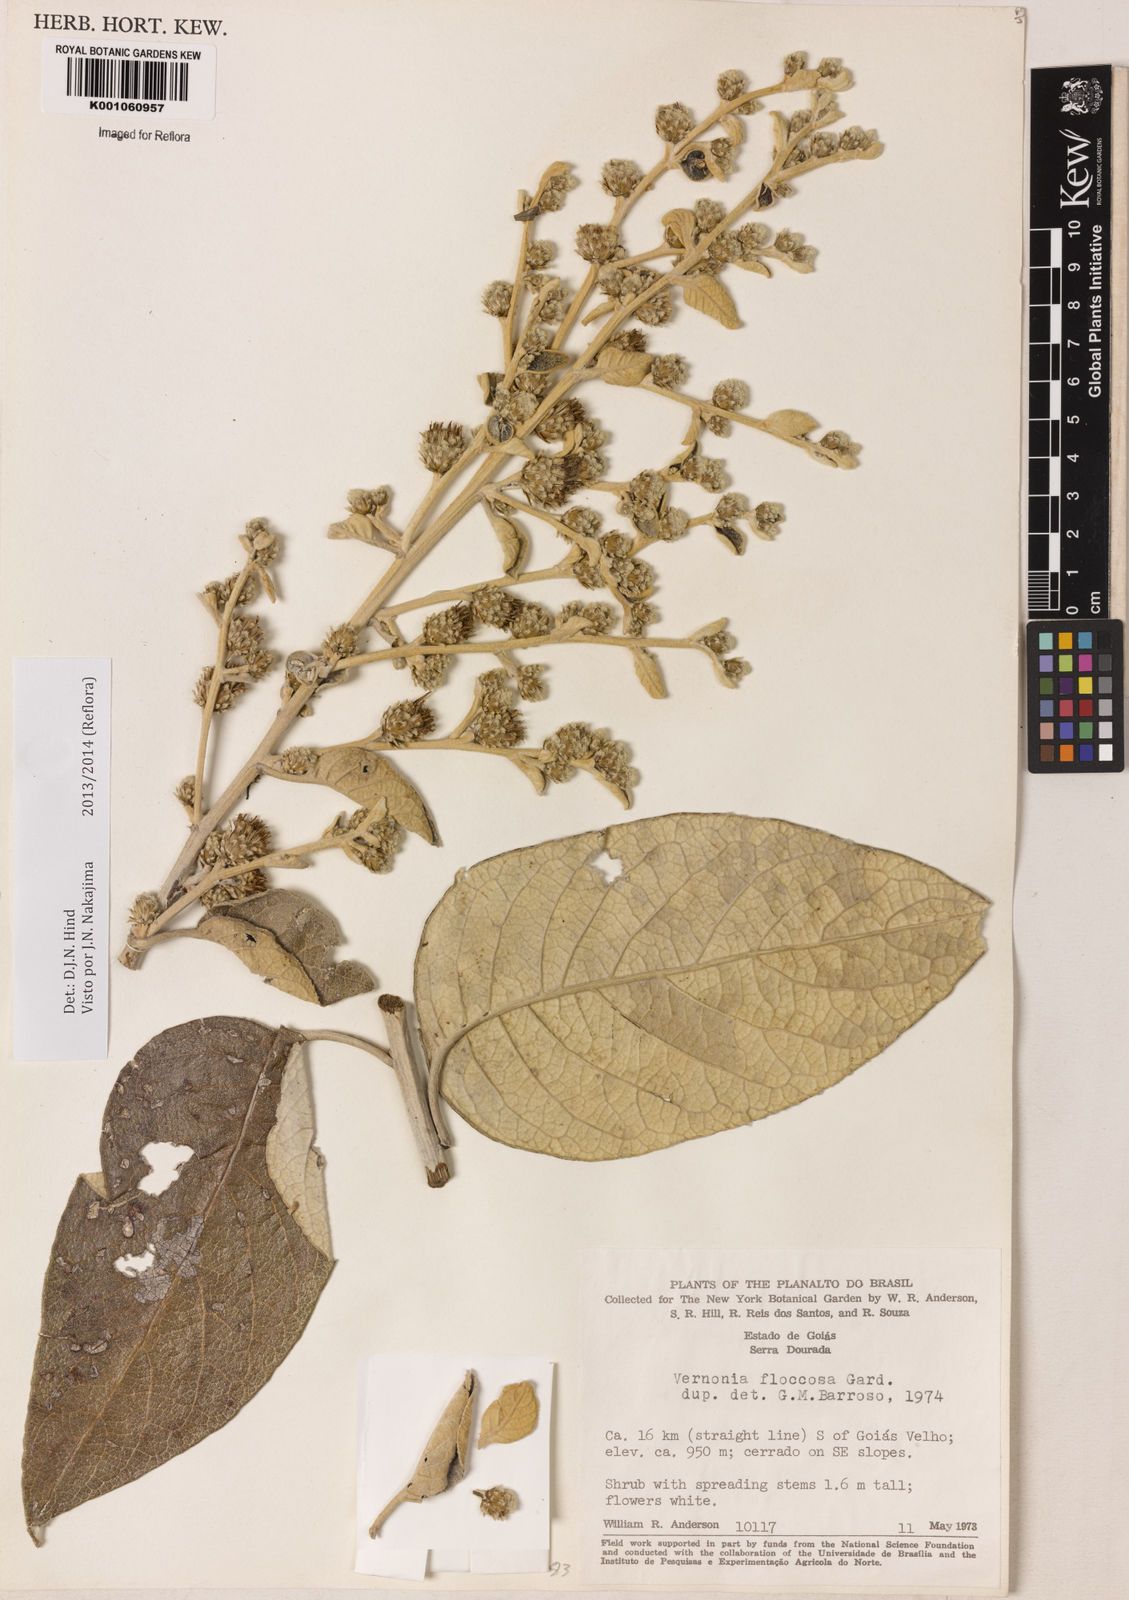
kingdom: Plantae
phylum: Tracheophyta
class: Magnoliopsida
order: Asterales
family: Asteraceae
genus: Lessingianthus
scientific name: Lessingianthus floccosus
